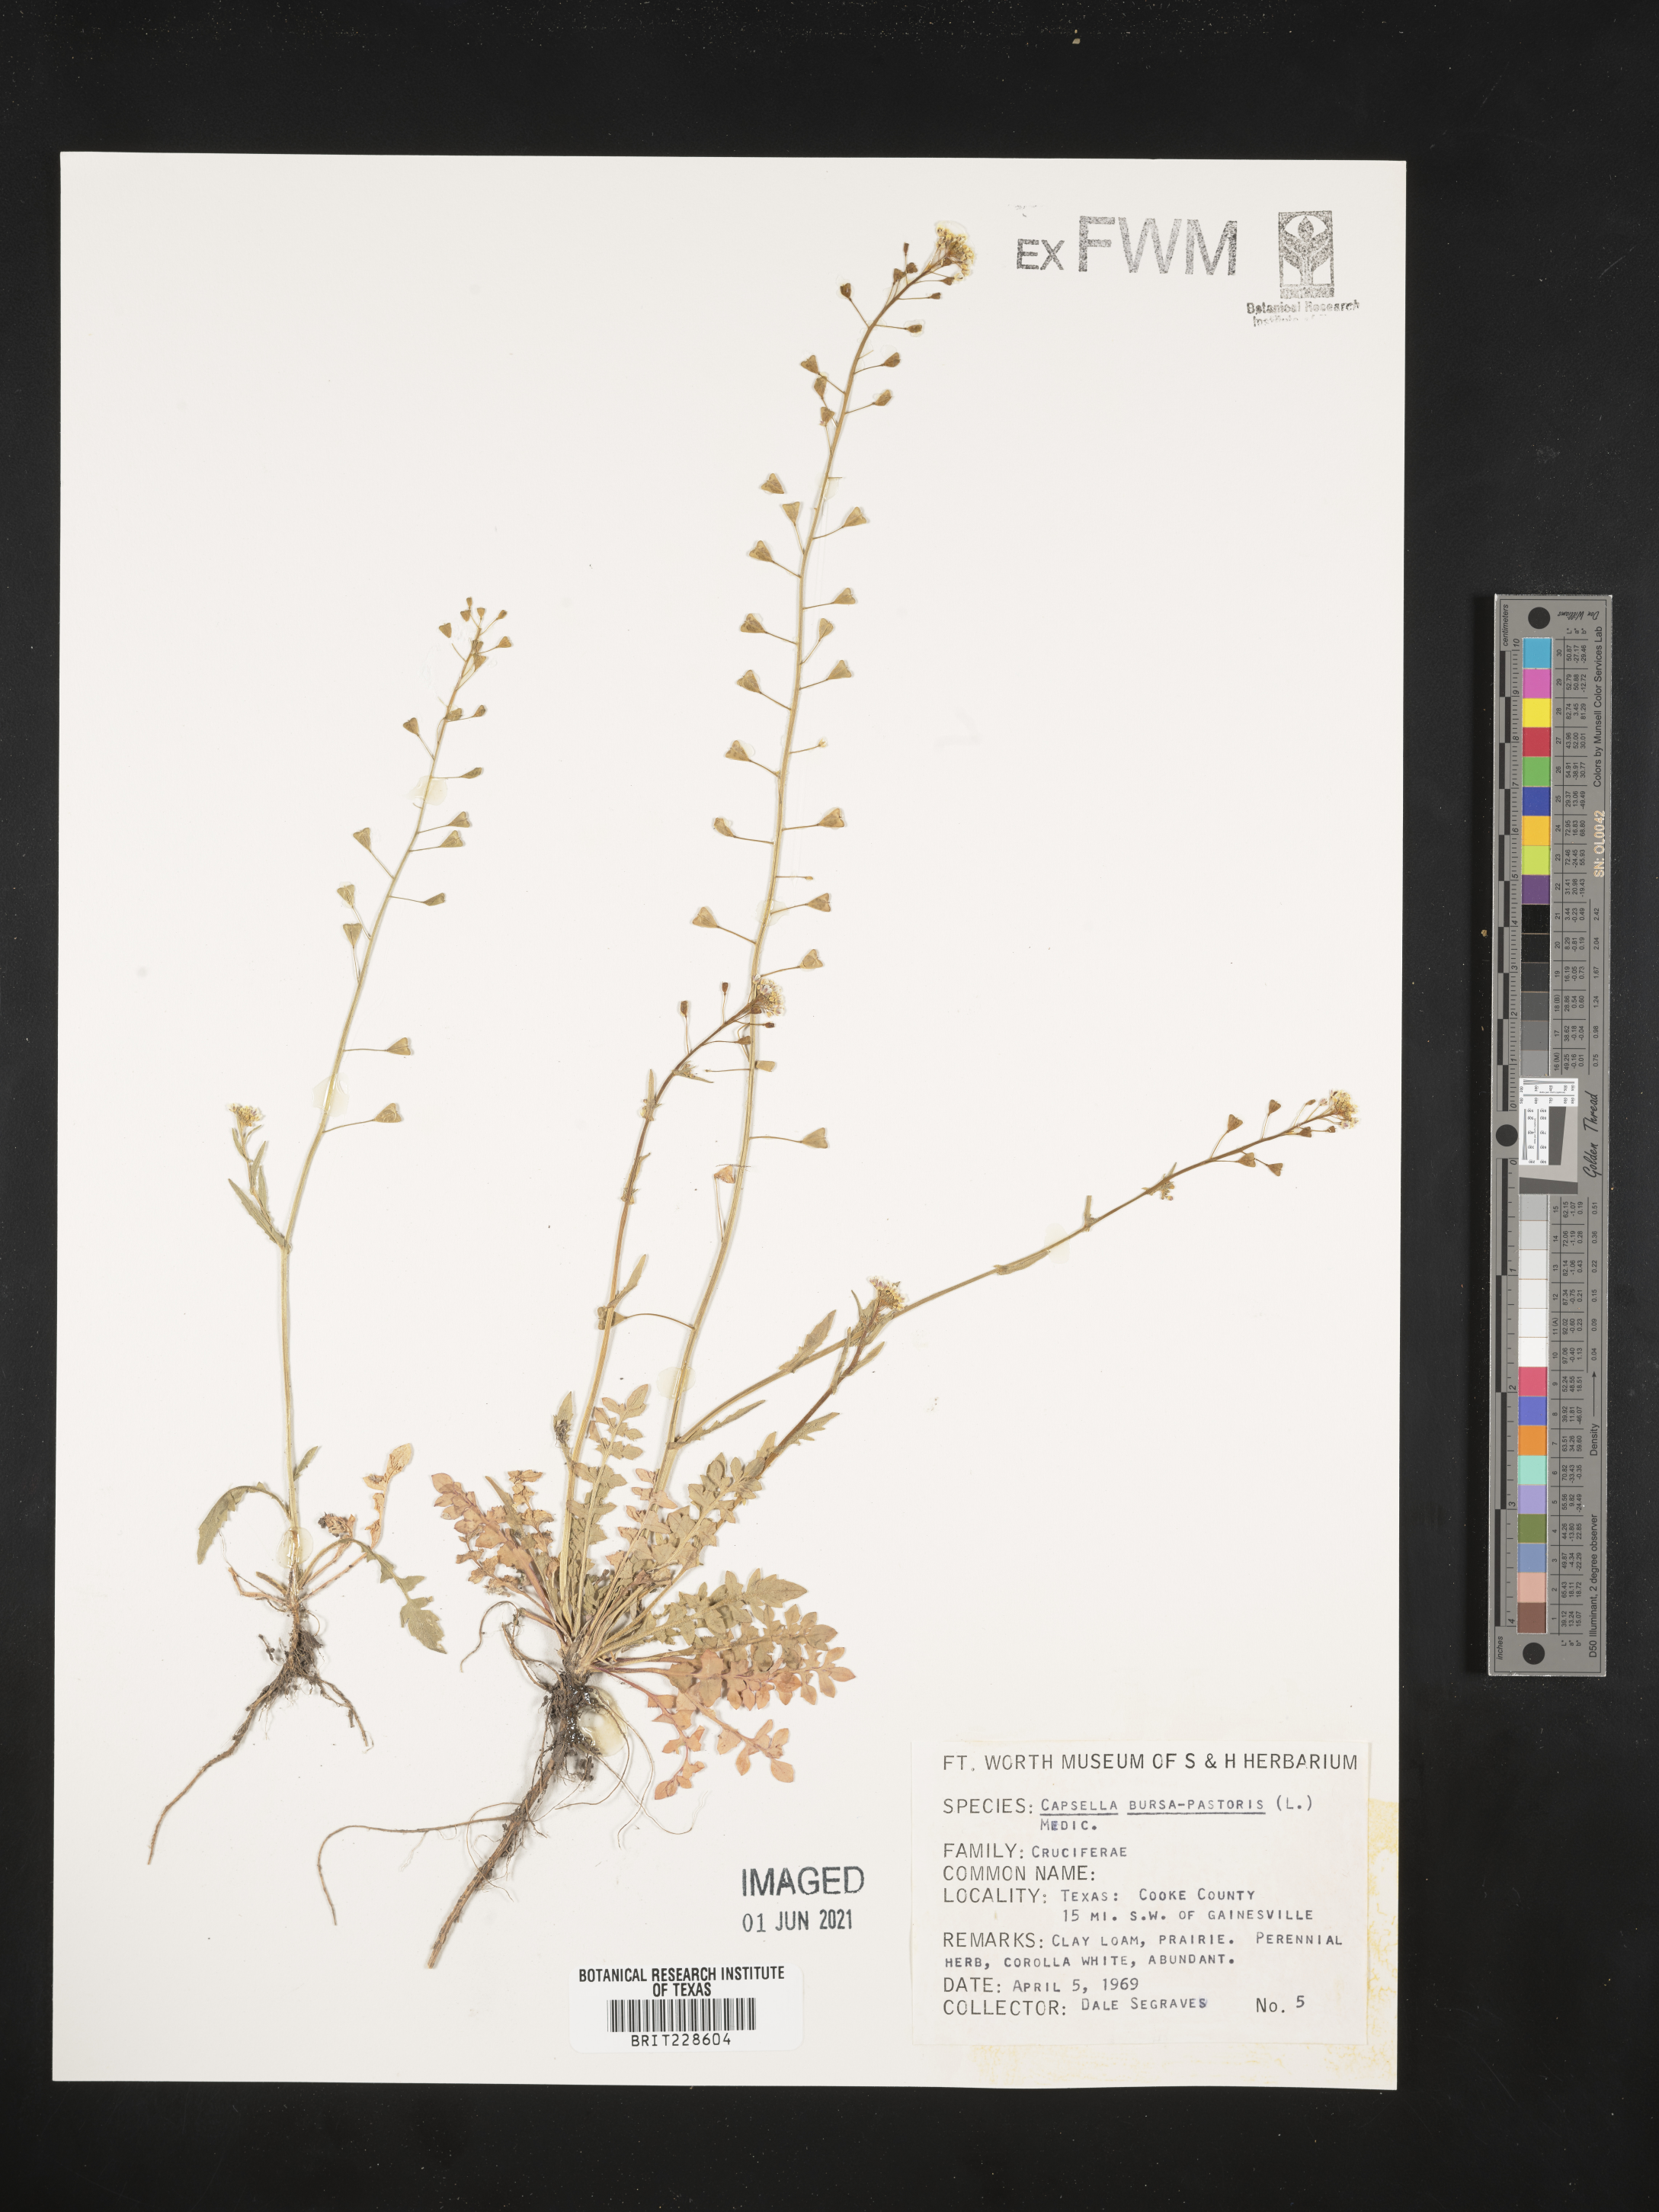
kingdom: Plantae
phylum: Tracheophyta
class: Magnoliopsida
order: Brassicales
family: Brassicaceae
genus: Capsella
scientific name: Capsella bursa-pastoris
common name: Shepherd's purse
